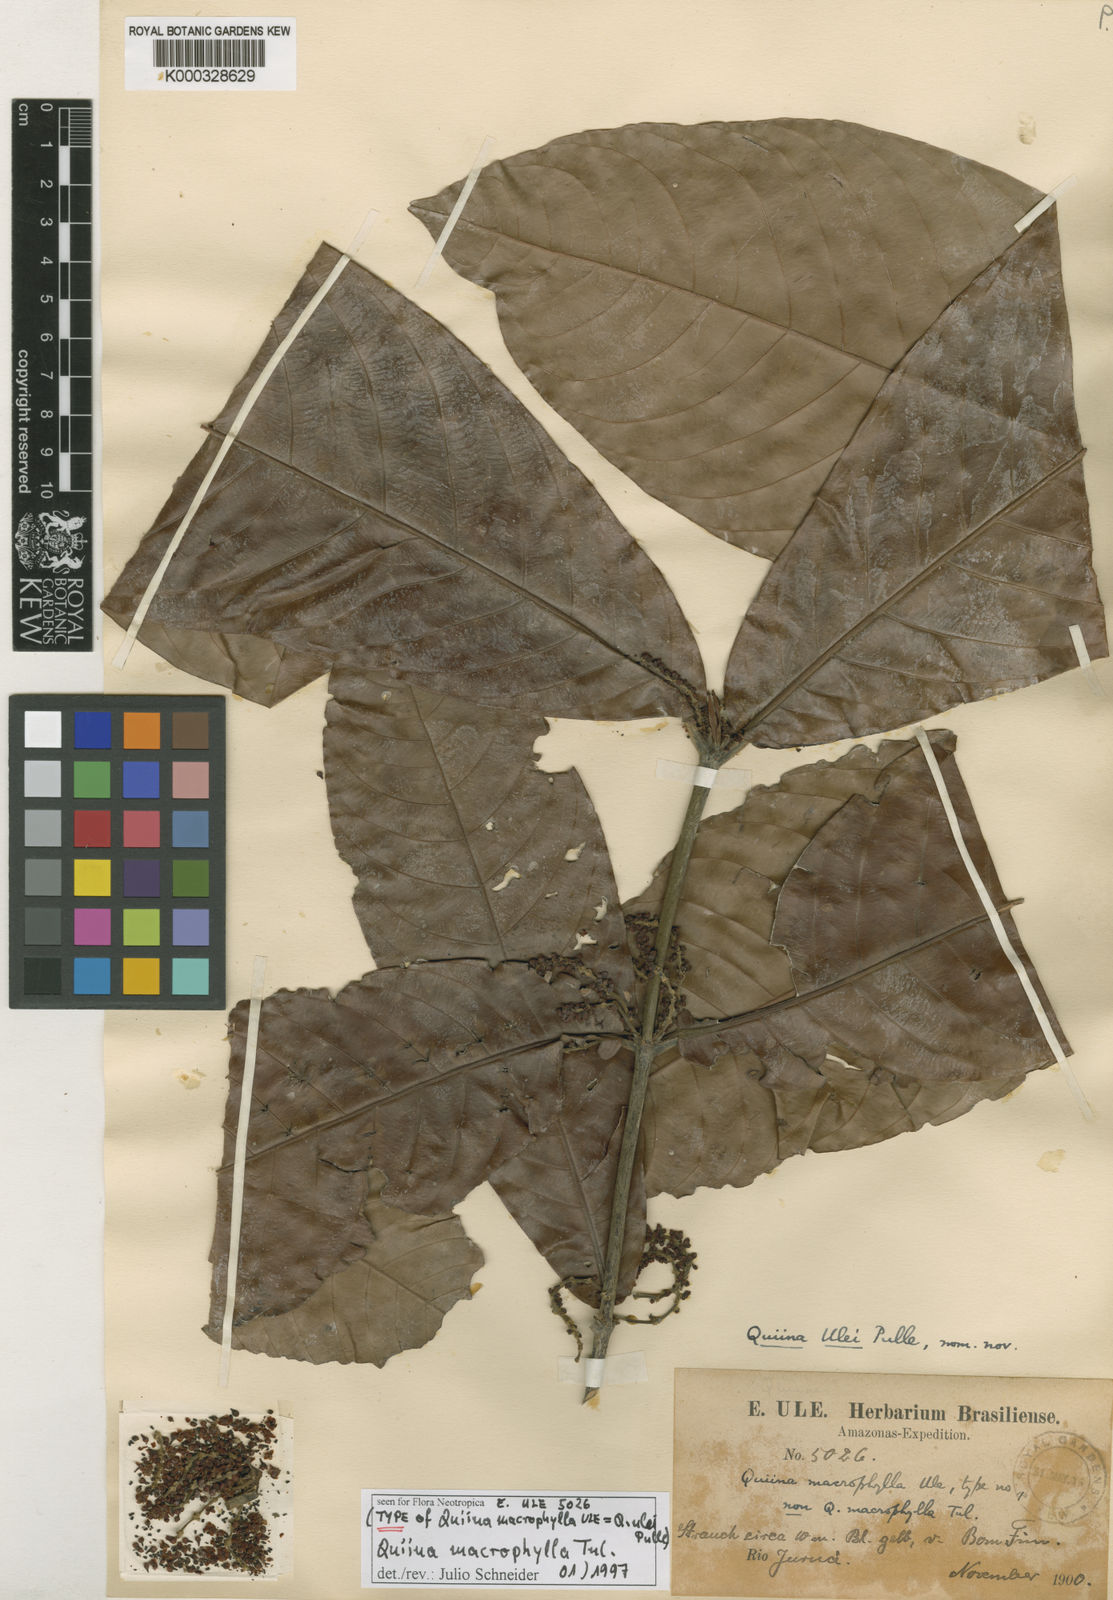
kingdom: Plantae
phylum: Tracheophyta
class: Magnoliopsida
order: Malpighiales
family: Quiinaceae
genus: Quiina
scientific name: Quiina macrophylla
